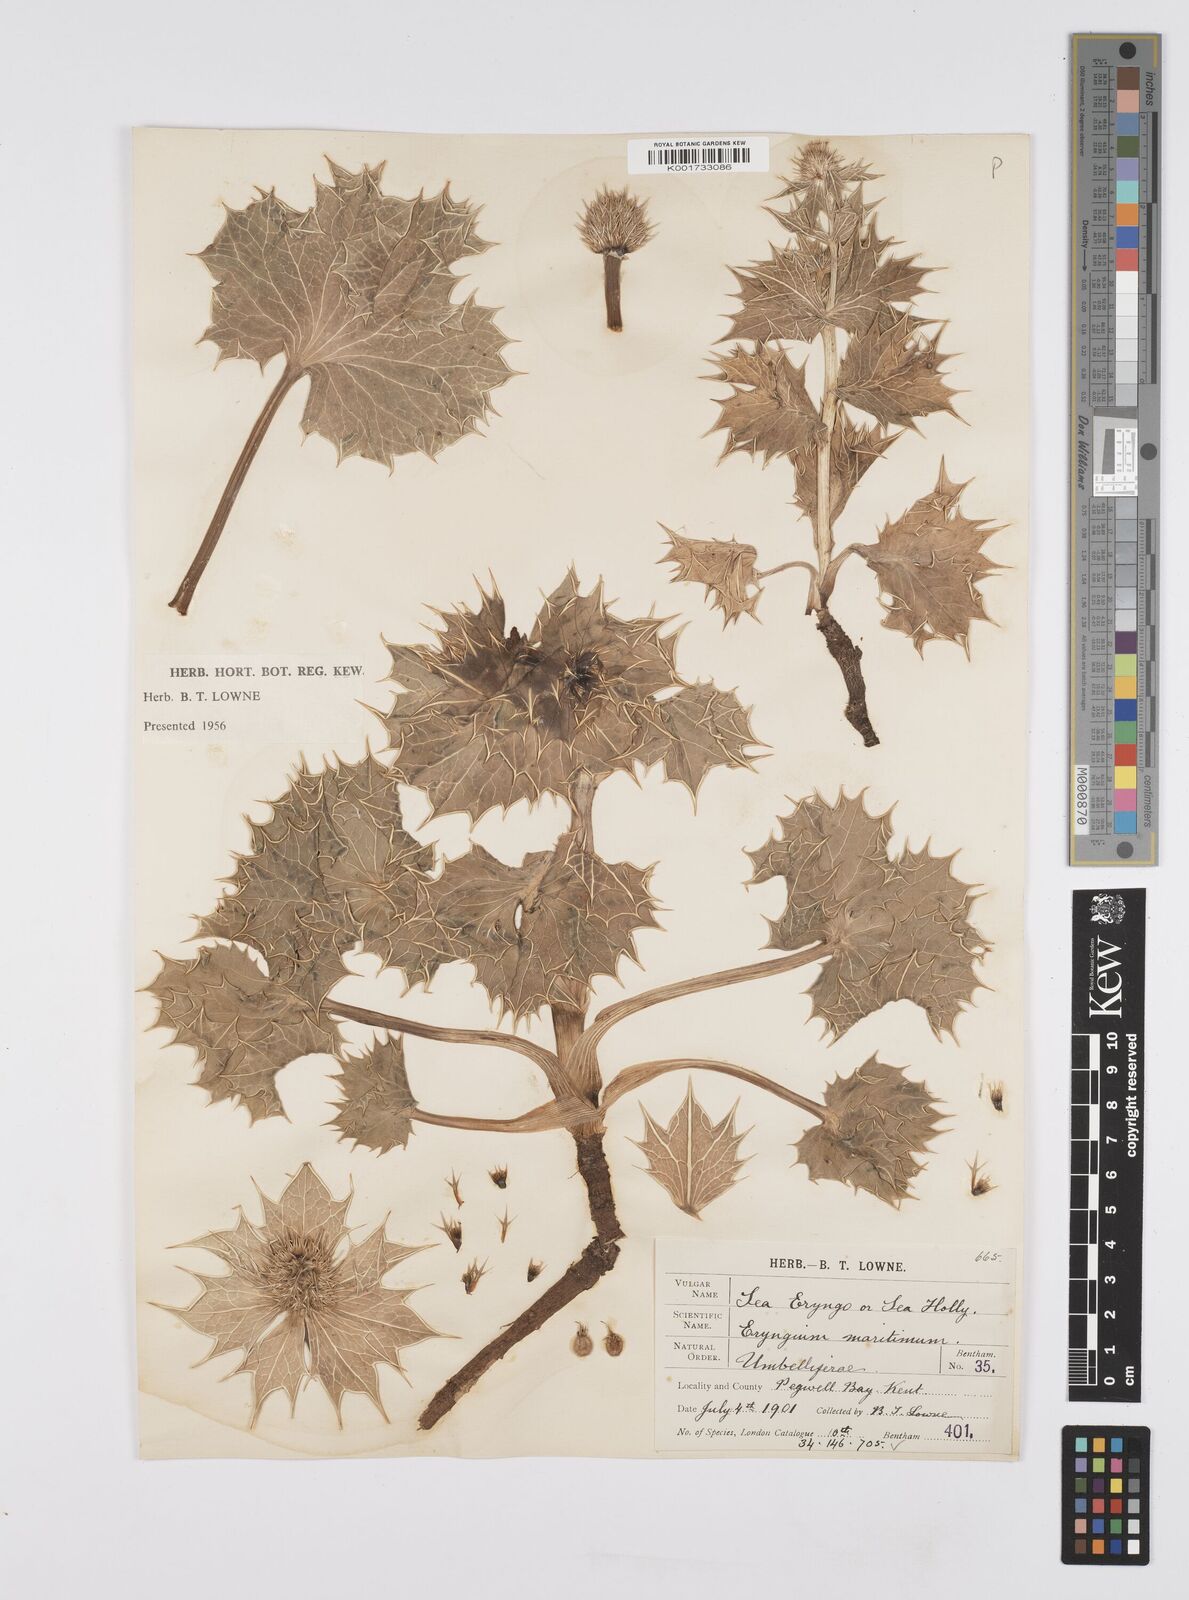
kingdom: Plantae
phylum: Tracheophyta
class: Magnoliopsida
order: Apiales
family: Apiaceae
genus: Eryngium
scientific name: Eryngium maritimum
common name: Sea-holly
